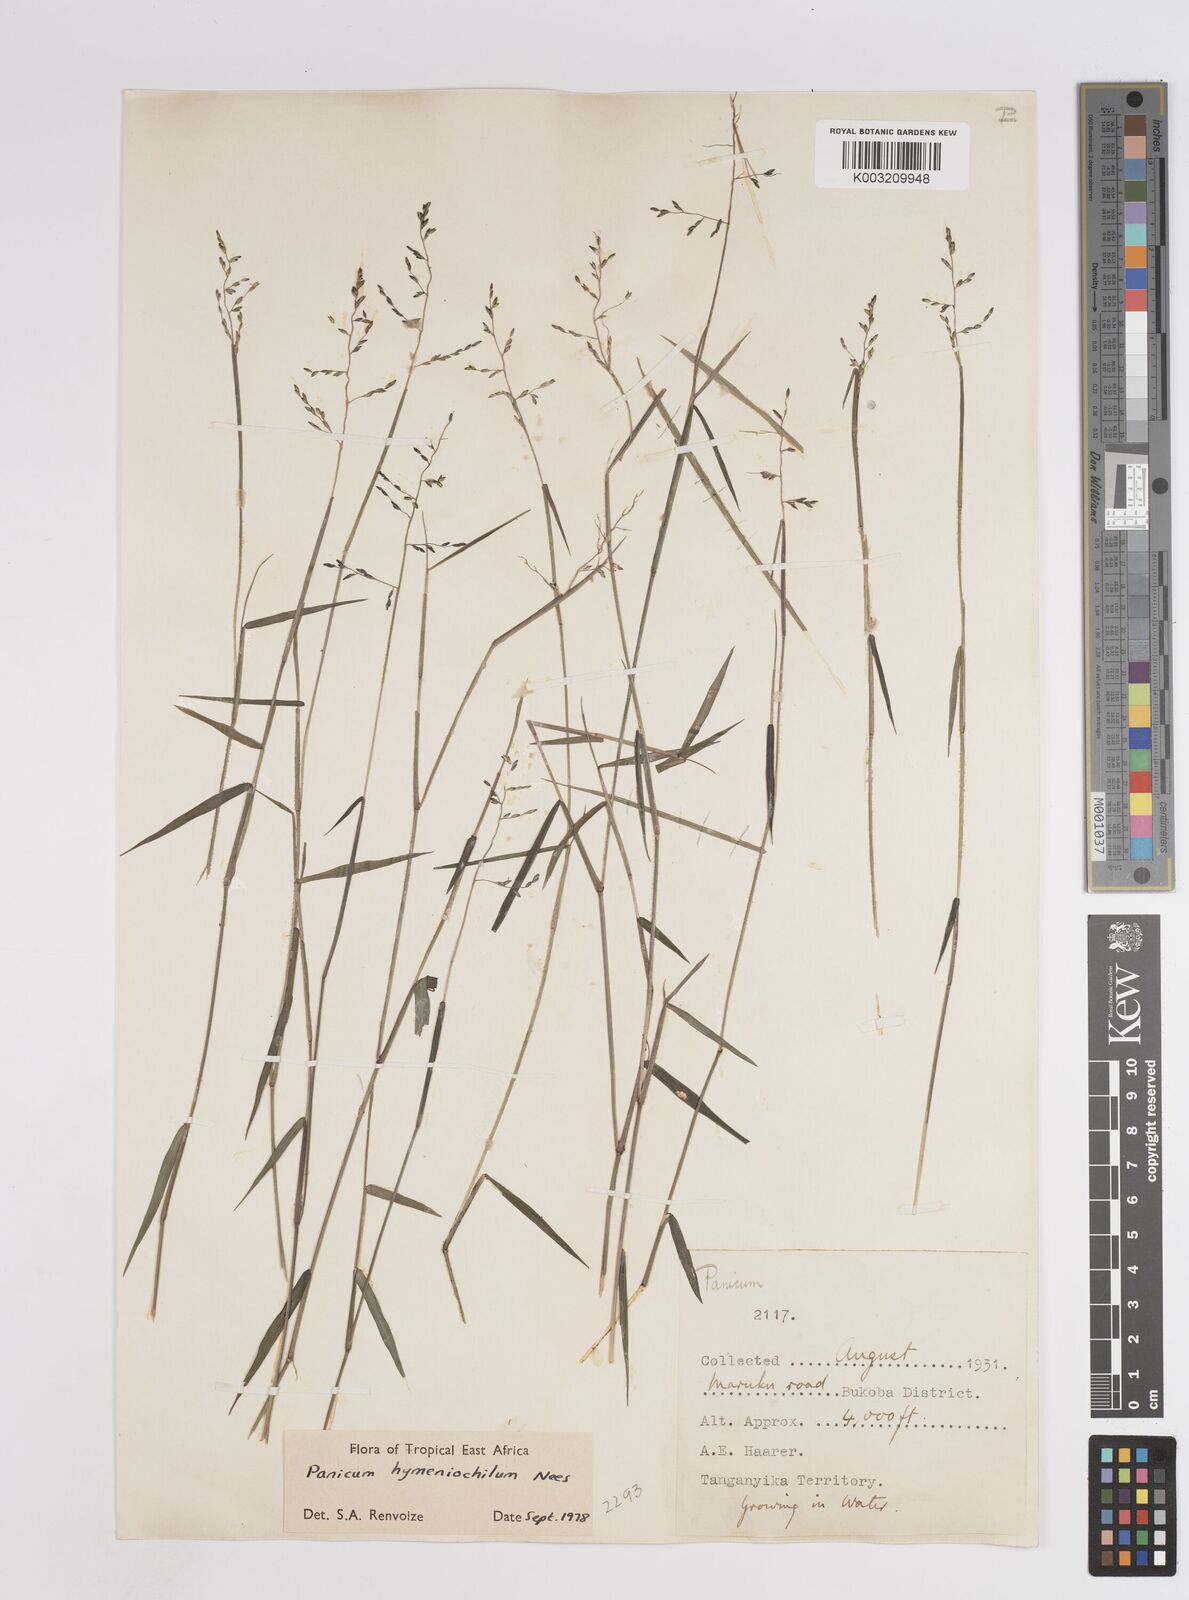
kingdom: Plantae
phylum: Tracheophyta
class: Liliopsida
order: Poales
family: Poaceae
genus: Adenochloa
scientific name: Adenochloa hymeniochila
